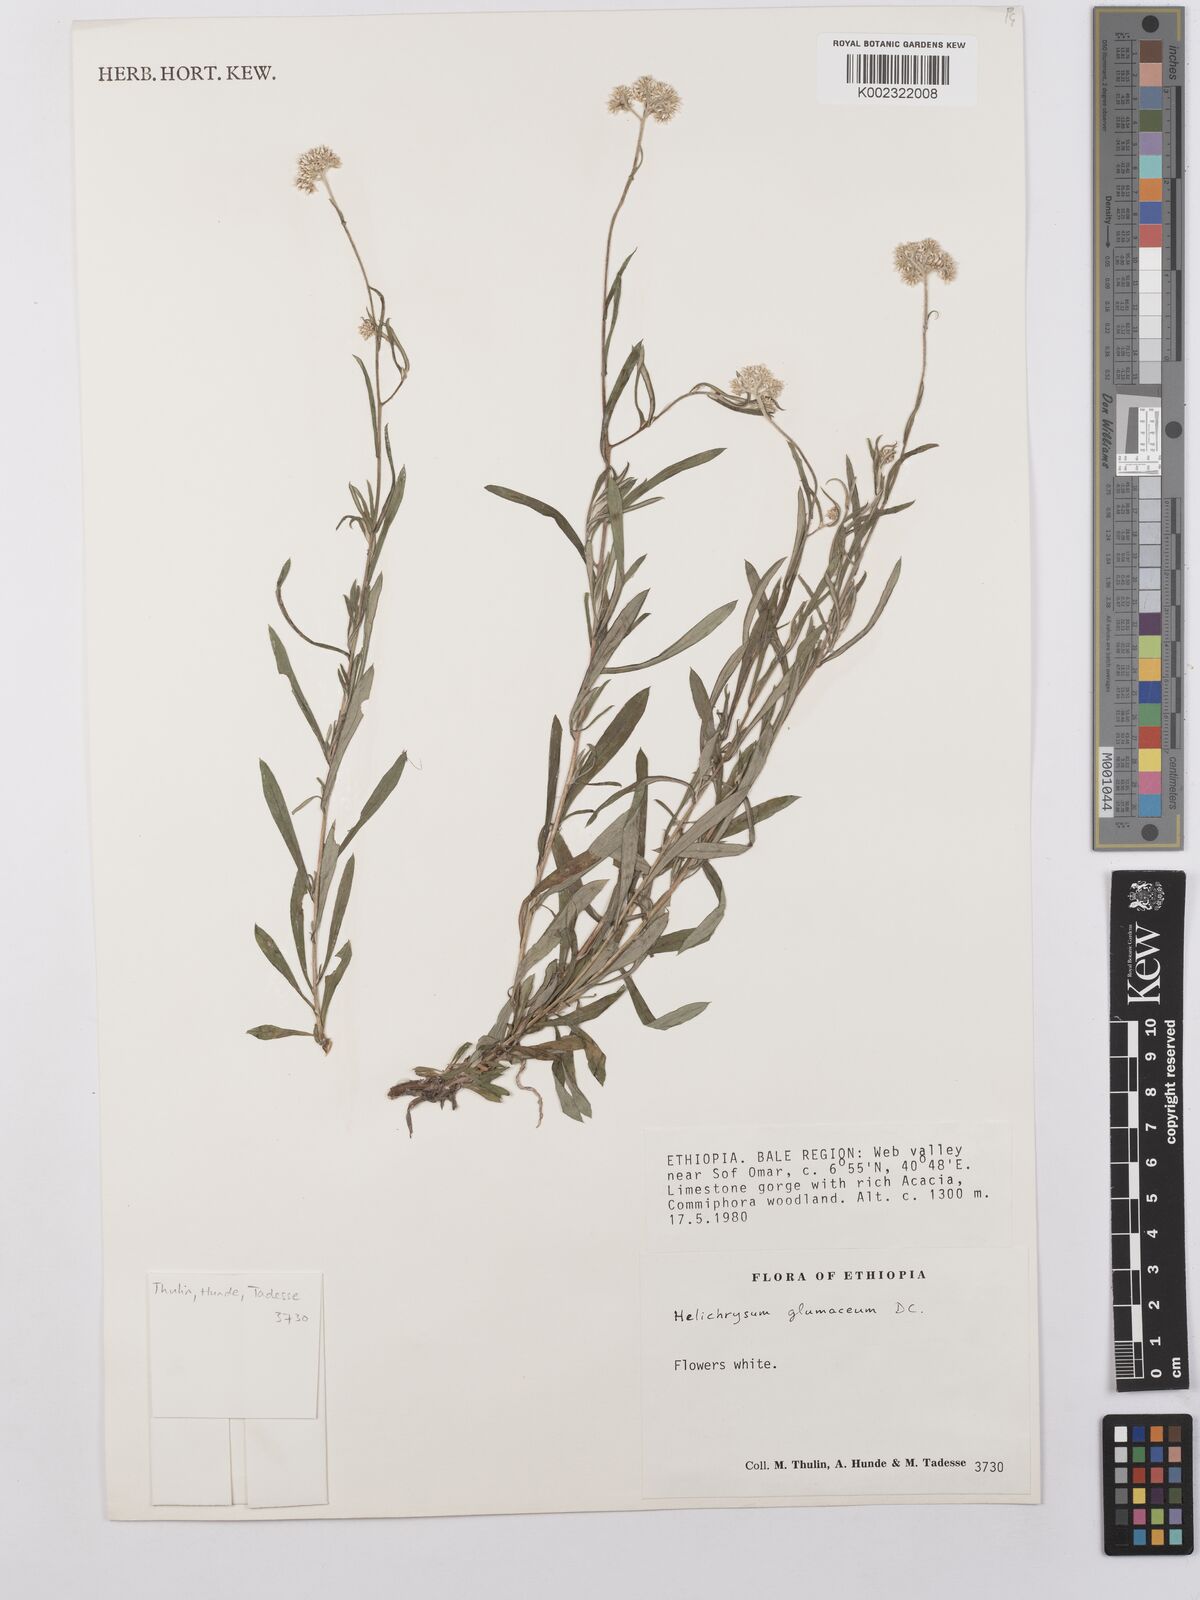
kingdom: Plantae
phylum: Tracheophyta
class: Magnoliopsida
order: Asterales
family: Asteraceae
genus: Helichrysum
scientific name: Helichrysum glumaceum
